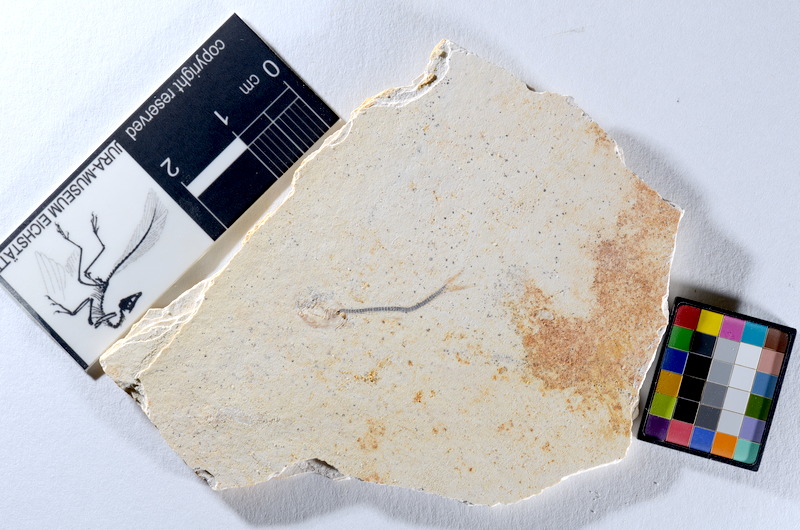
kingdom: Animalia
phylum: Chordata
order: Salmoniformes
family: Orthogonikleithridae
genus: Orthogonikleithrus
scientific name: Orthogonikleithrus hoelli
